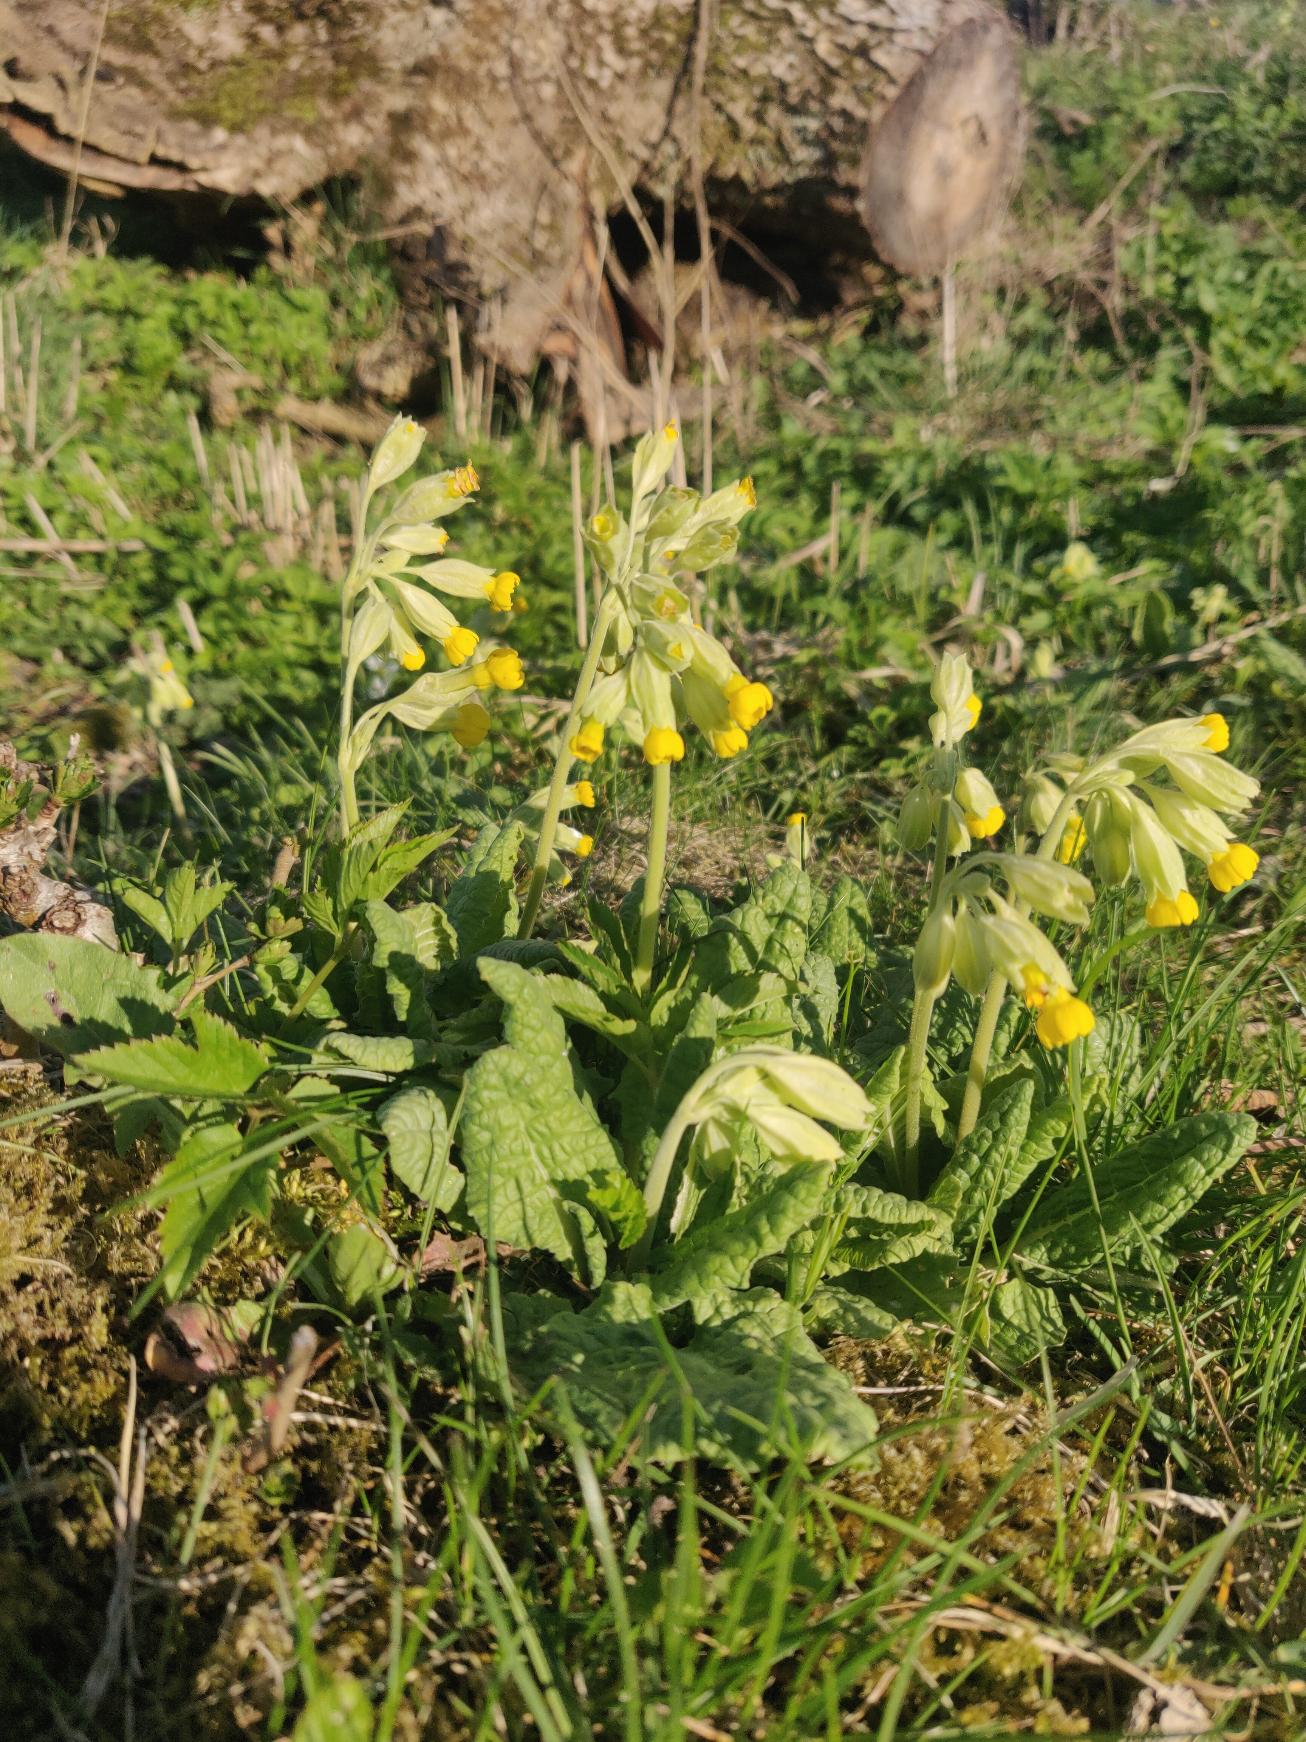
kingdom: Plantae
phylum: Tracheophyta
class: Magnoliopsida
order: Ericales
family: Primulaceae
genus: Primula
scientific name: Primula veris
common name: Hulkravet kodriver
